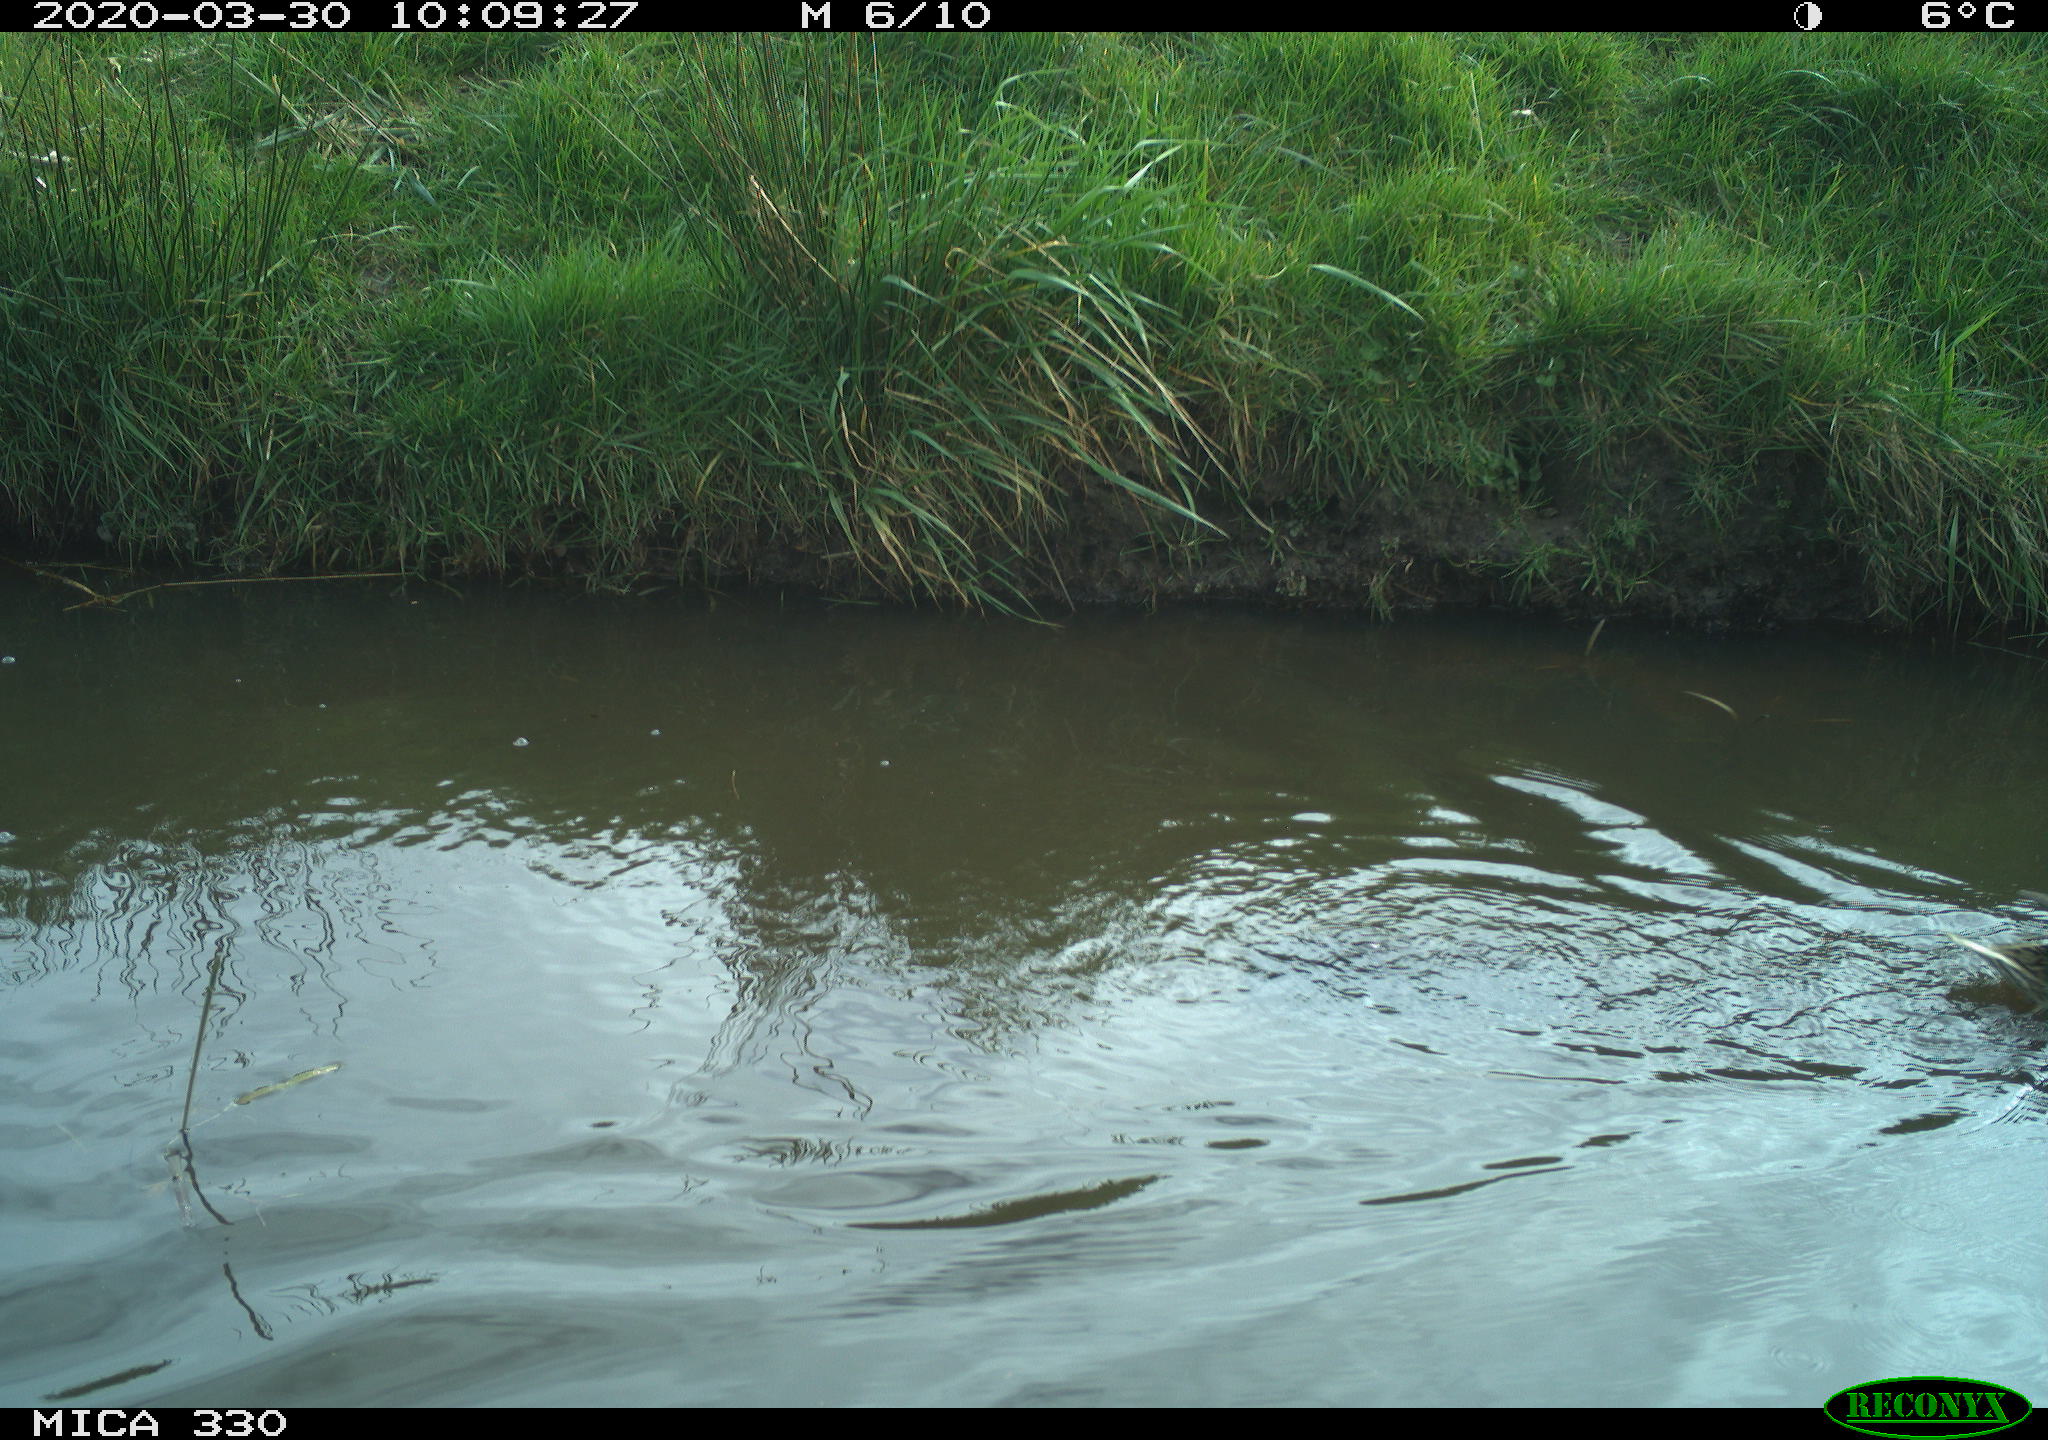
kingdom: Animalia
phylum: Chordata
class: Aves
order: Anseriformes
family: Anatidae
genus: Mareca
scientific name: Mareca strepera
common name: Gadwall
